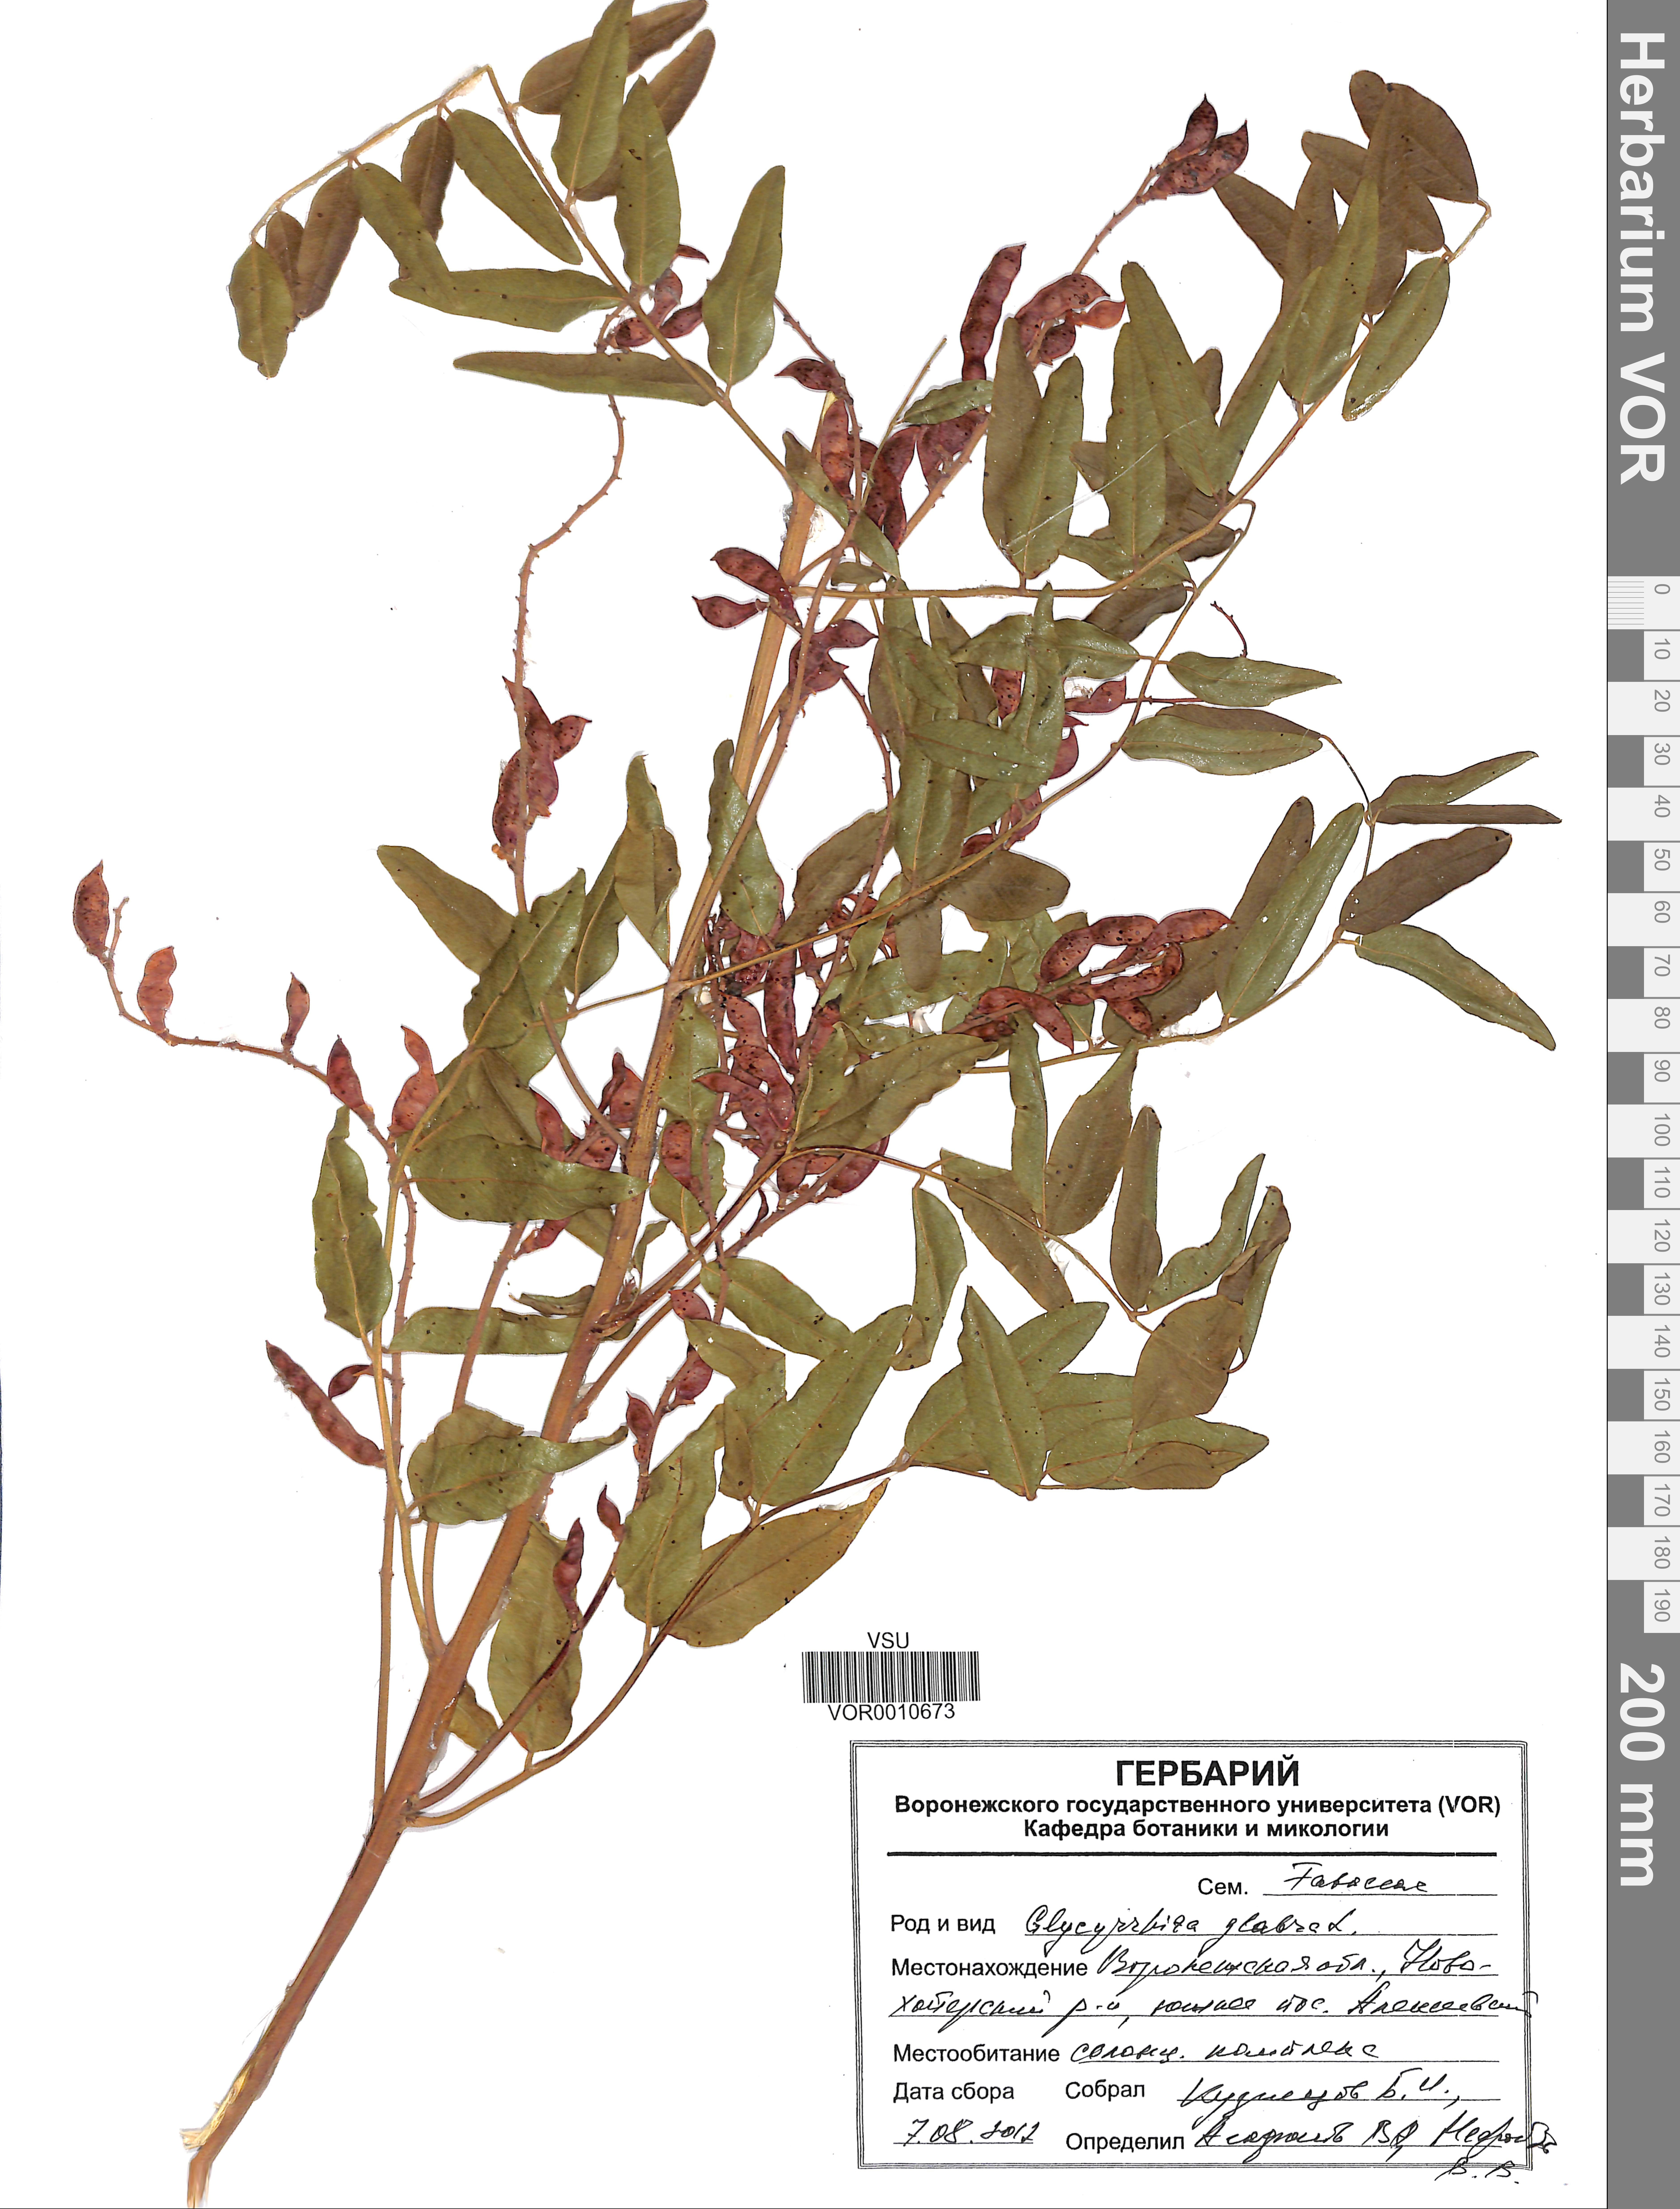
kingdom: Plantae
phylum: Tracheophyta
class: Magnoliopsida
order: Fabales
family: Fabaceae
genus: Glycyrrhiza
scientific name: Glycyrrhiza glabra
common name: Liquorice
